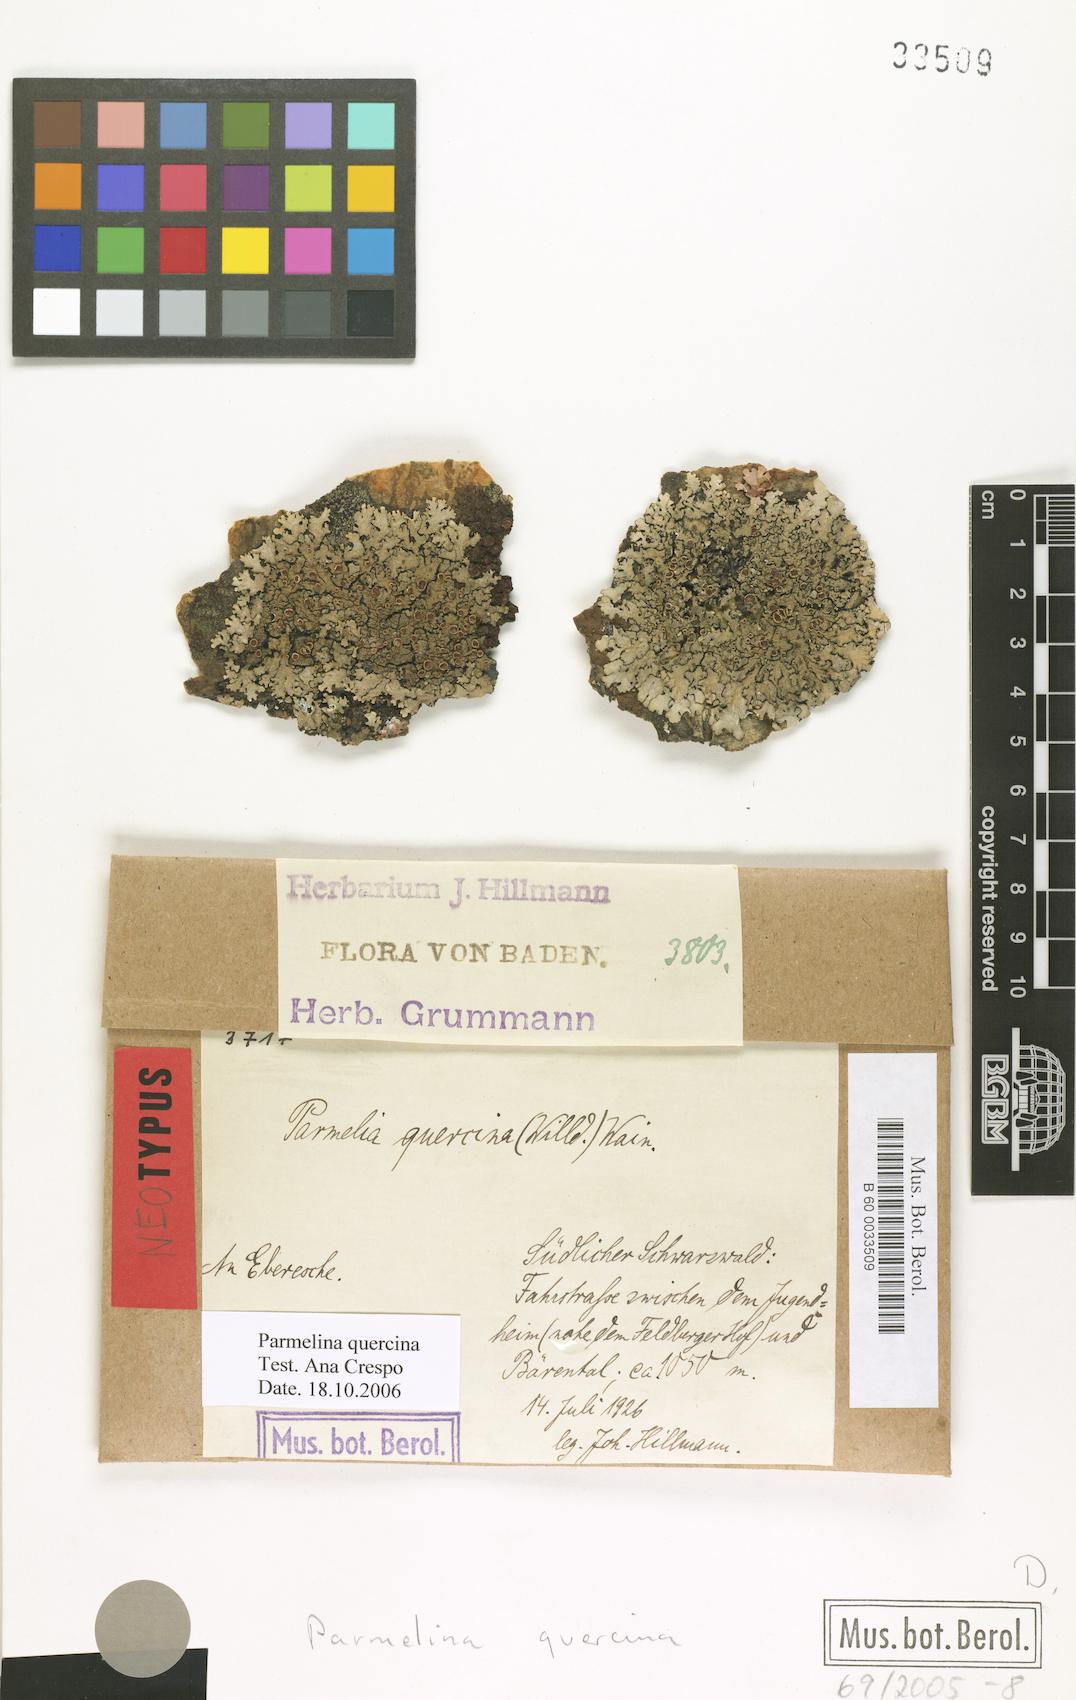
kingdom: Fungi
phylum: Ascomycota
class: Lecanoromycetes
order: Lecanorales
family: Parmeliaceae
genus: Parmelina
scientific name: Parmelina quercina
